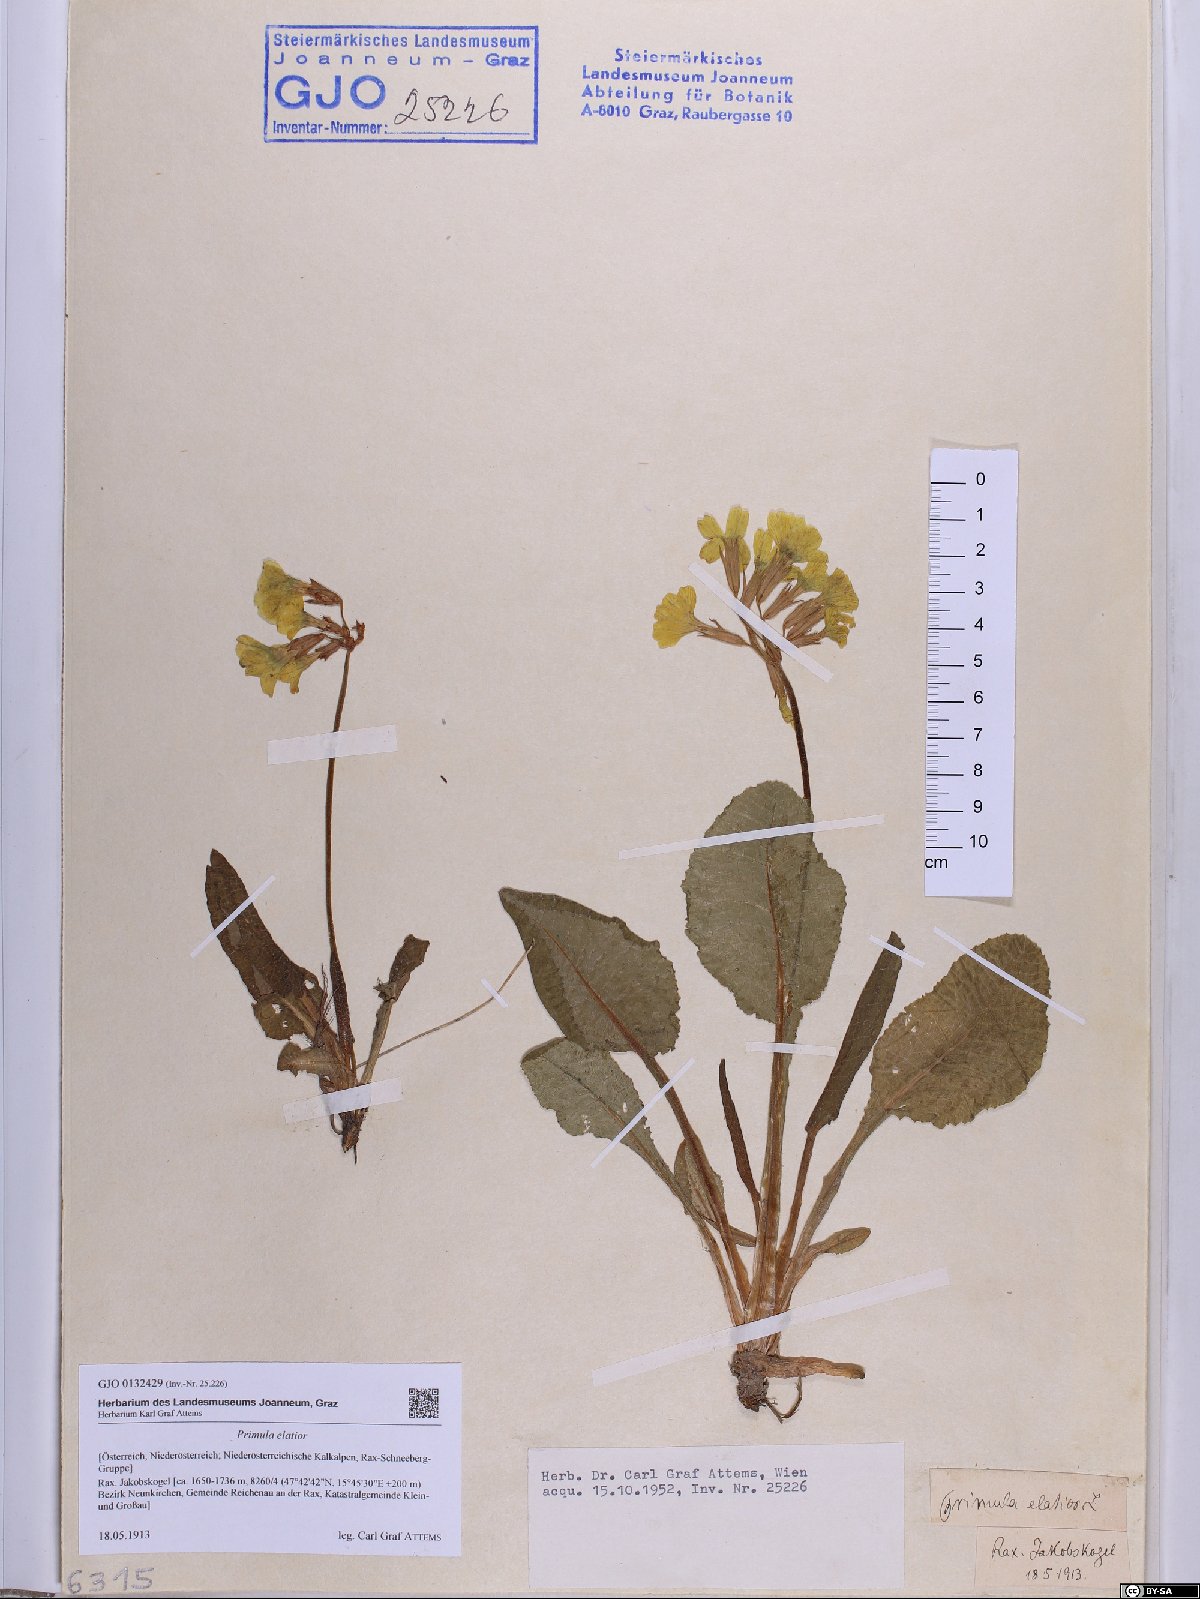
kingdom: Plantae
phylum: Tracheophyta
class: Magnoliopsida
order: Ericales
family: Primulaceae
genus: Primula
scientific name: Primula elatior
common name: Oxlip
